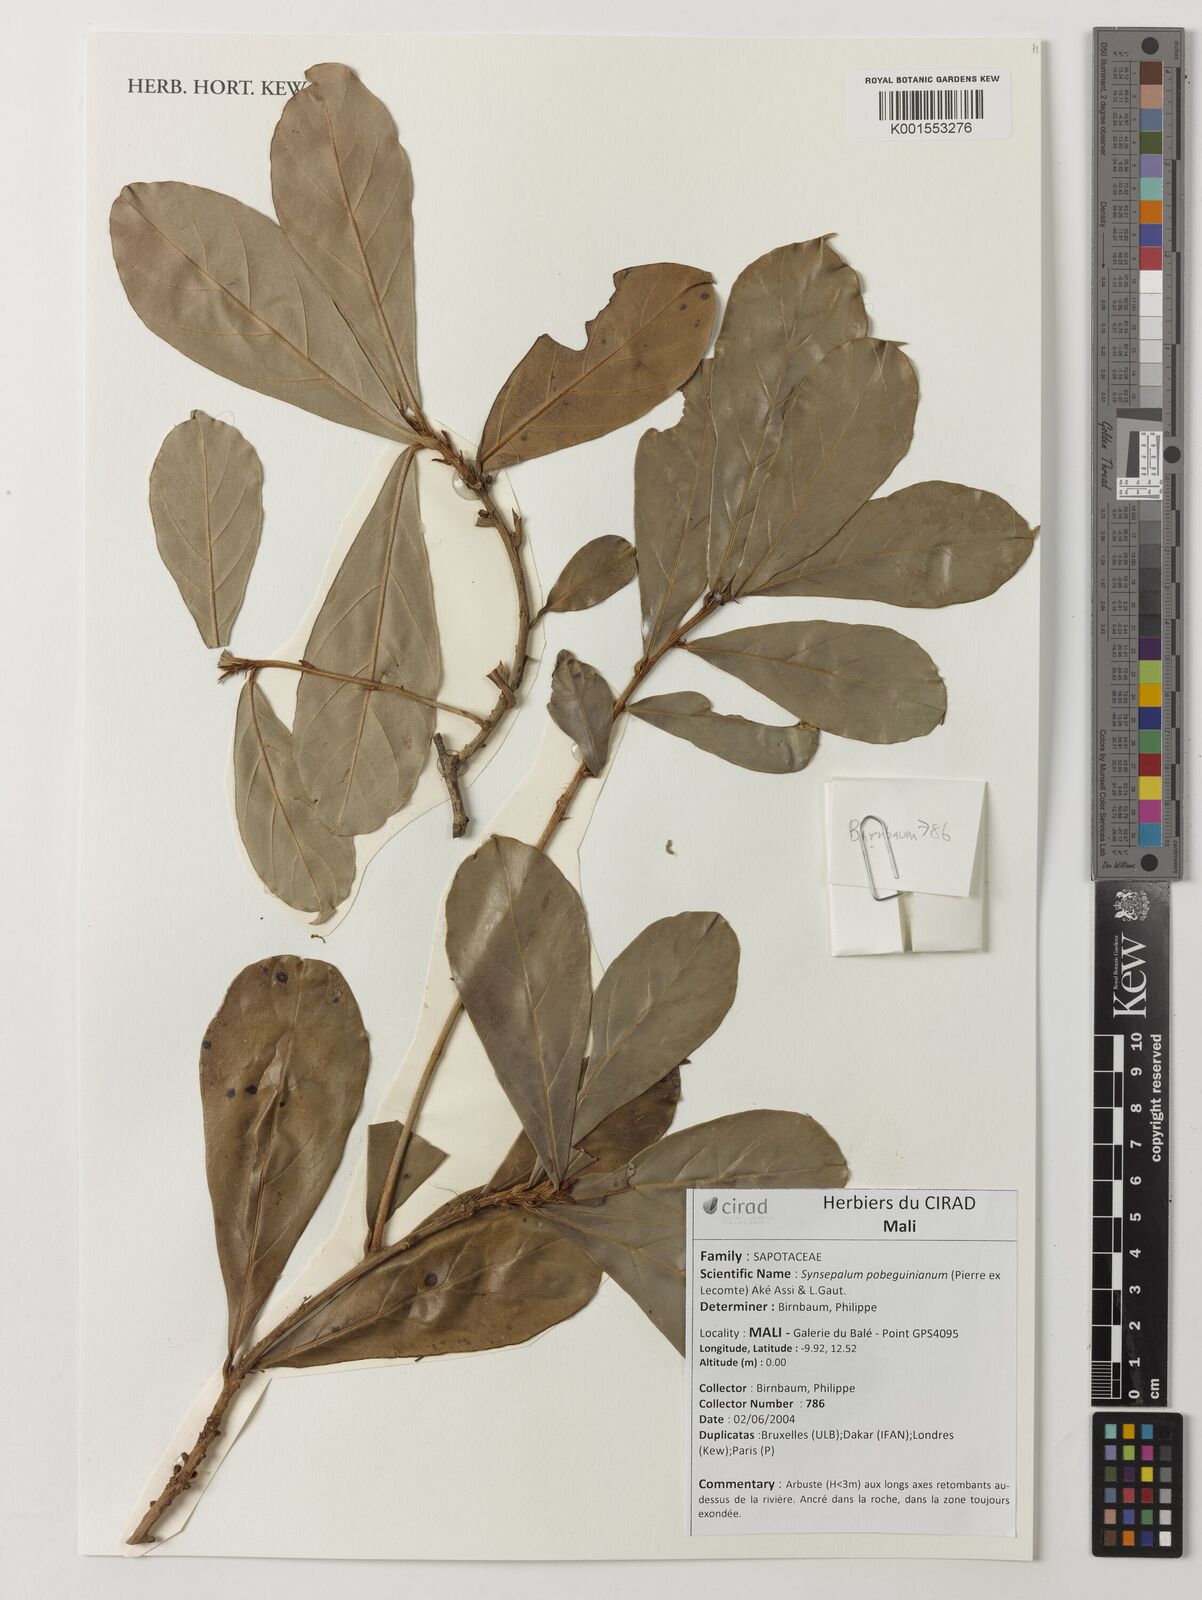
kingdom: Plantae
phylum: Tracheophyta
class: Magnoliopsida
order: Ericales
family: Sapotaceae
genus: Synsepalum
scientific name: Synsepalum pobeguinianum
